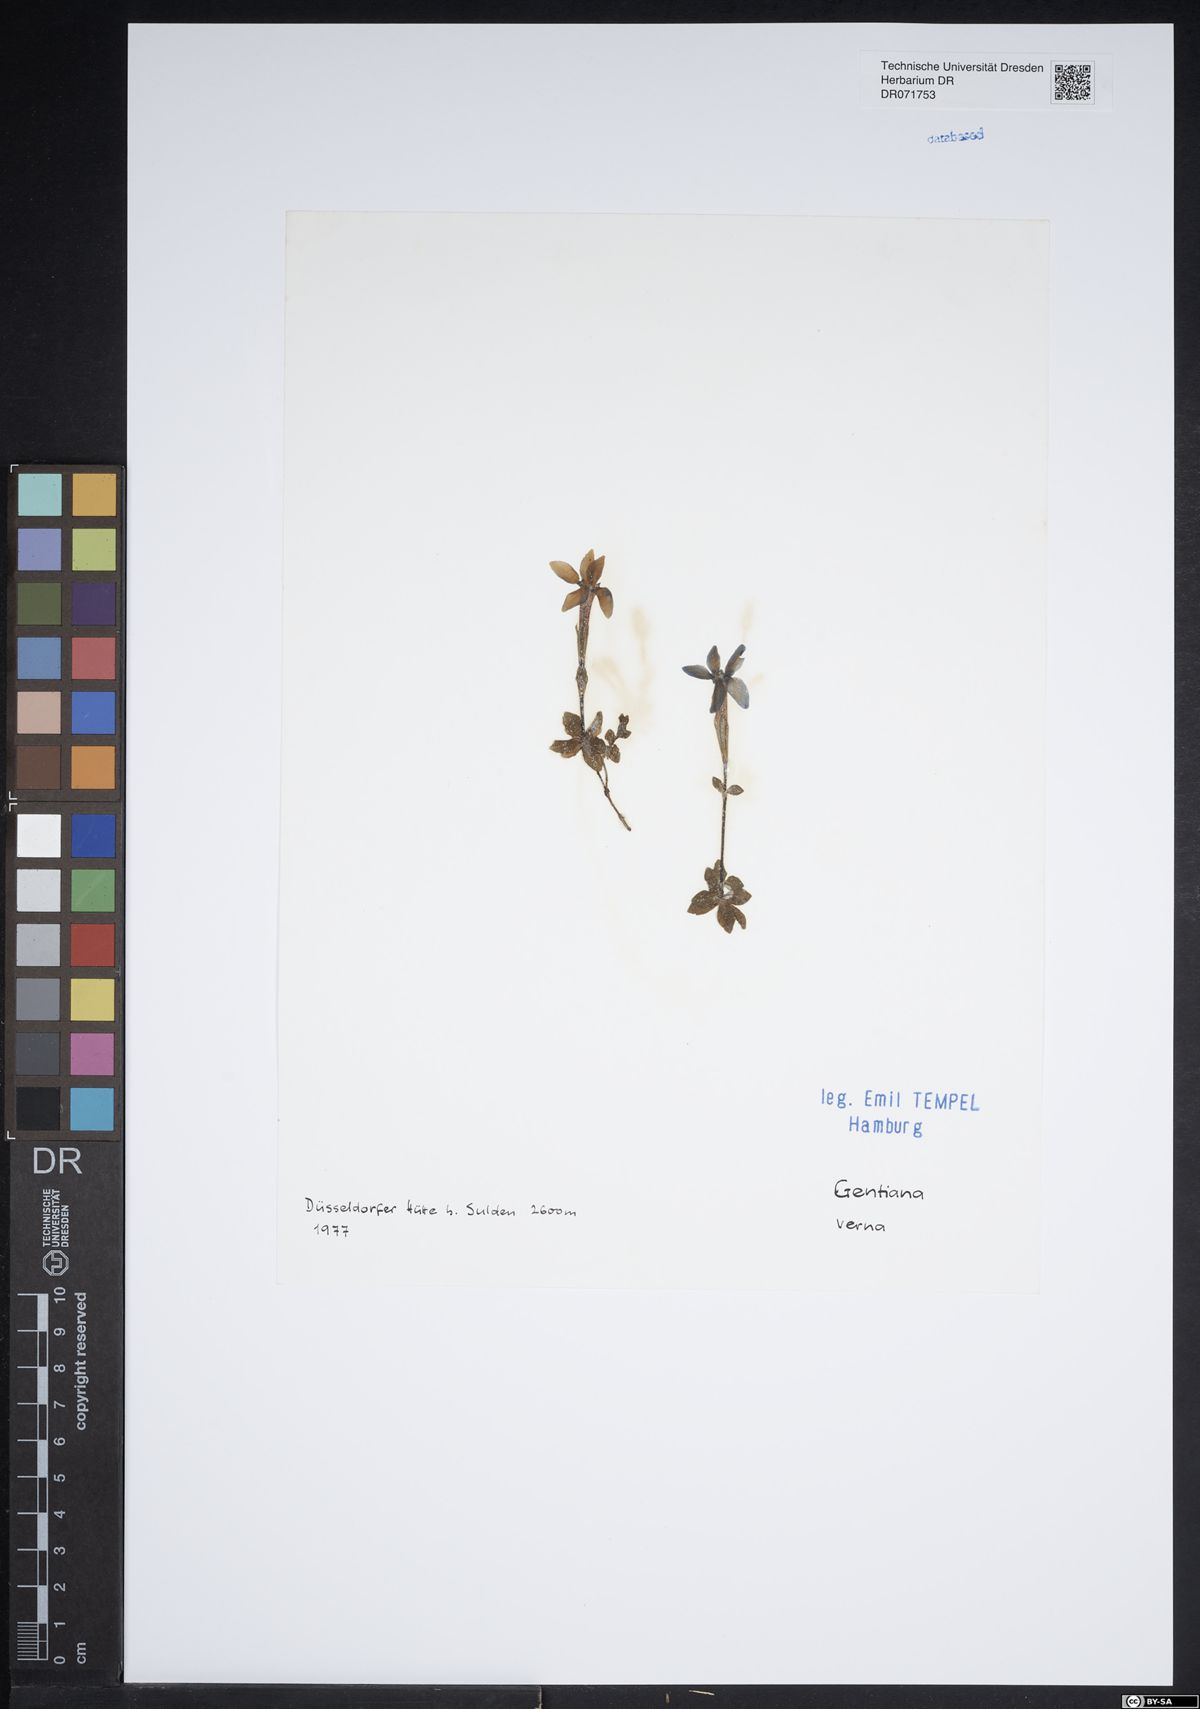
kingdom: Plantae
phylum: Tracheophyta
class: Magnoliopsida
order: Gentianales
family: Gentianaceae
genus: Gentiana
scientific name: Gentiana verna
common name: Spring gentian
